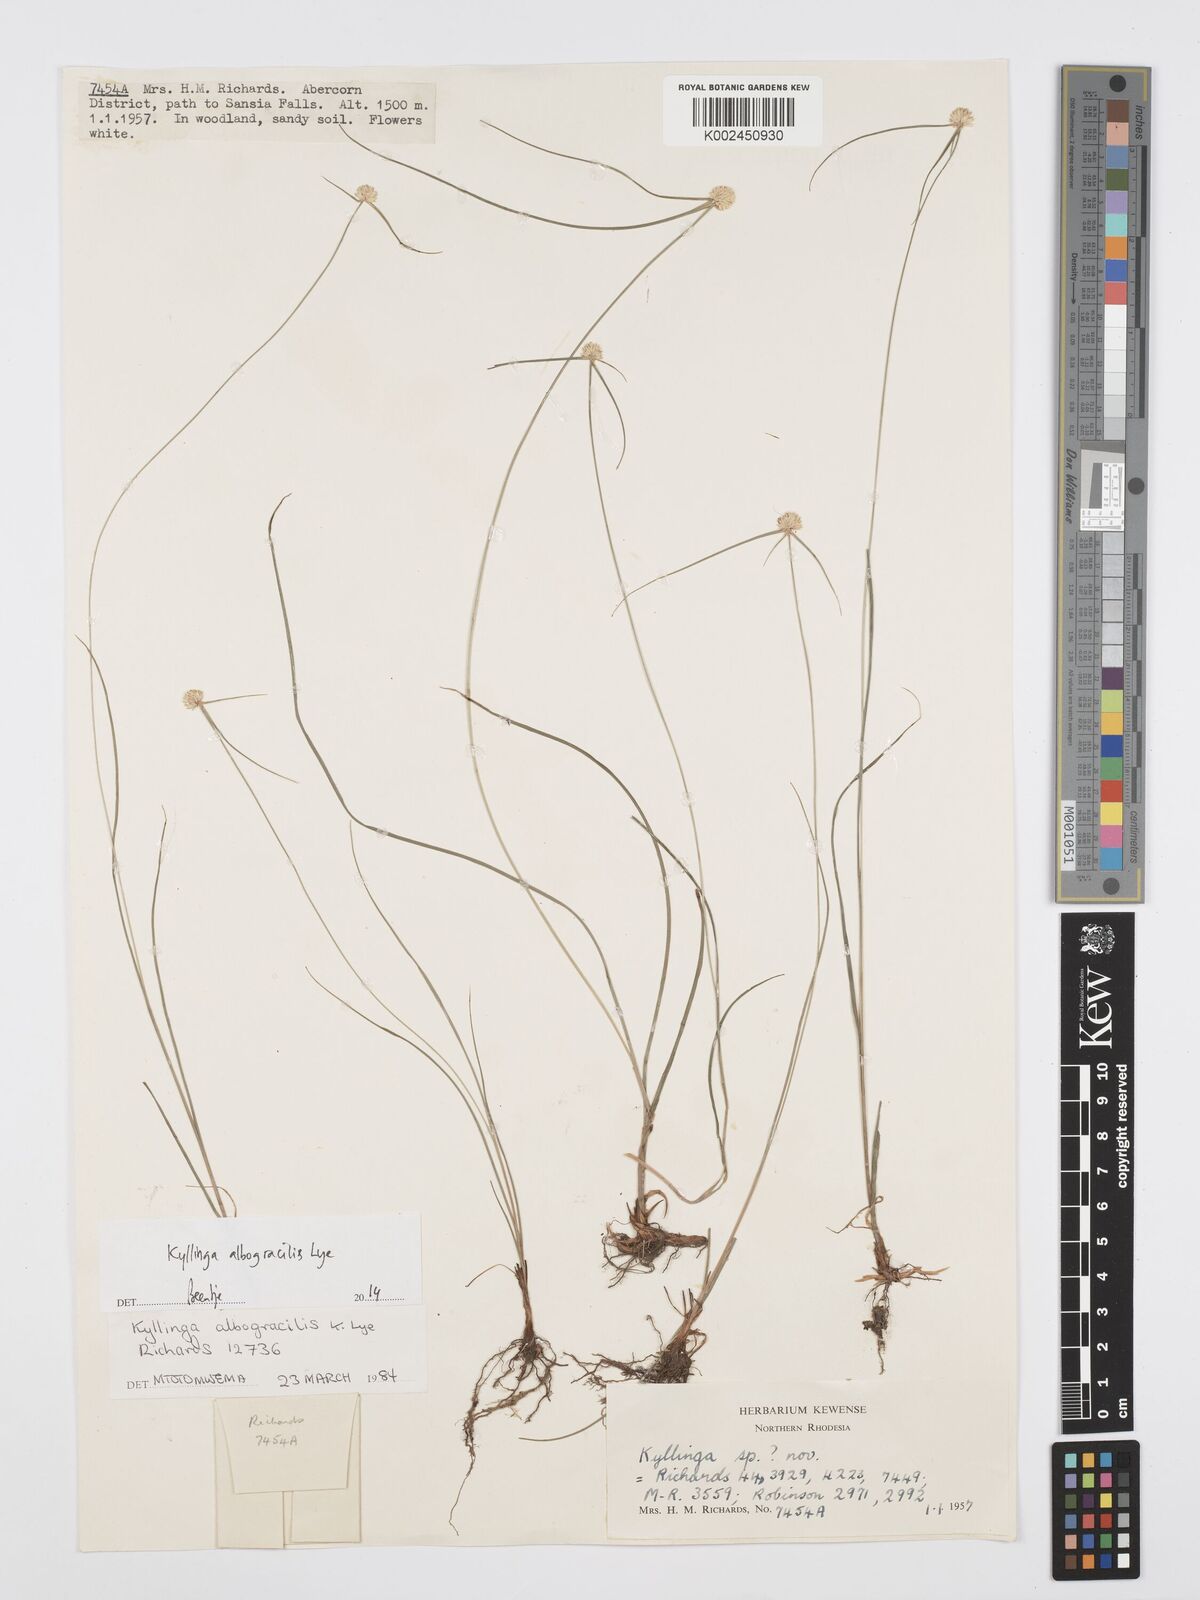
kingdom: Plantae
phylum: Tracheophyta
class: Liliopsida
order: Poales
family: Cyperaceae
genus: Cyperus
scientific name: Cyperus albogracilis
